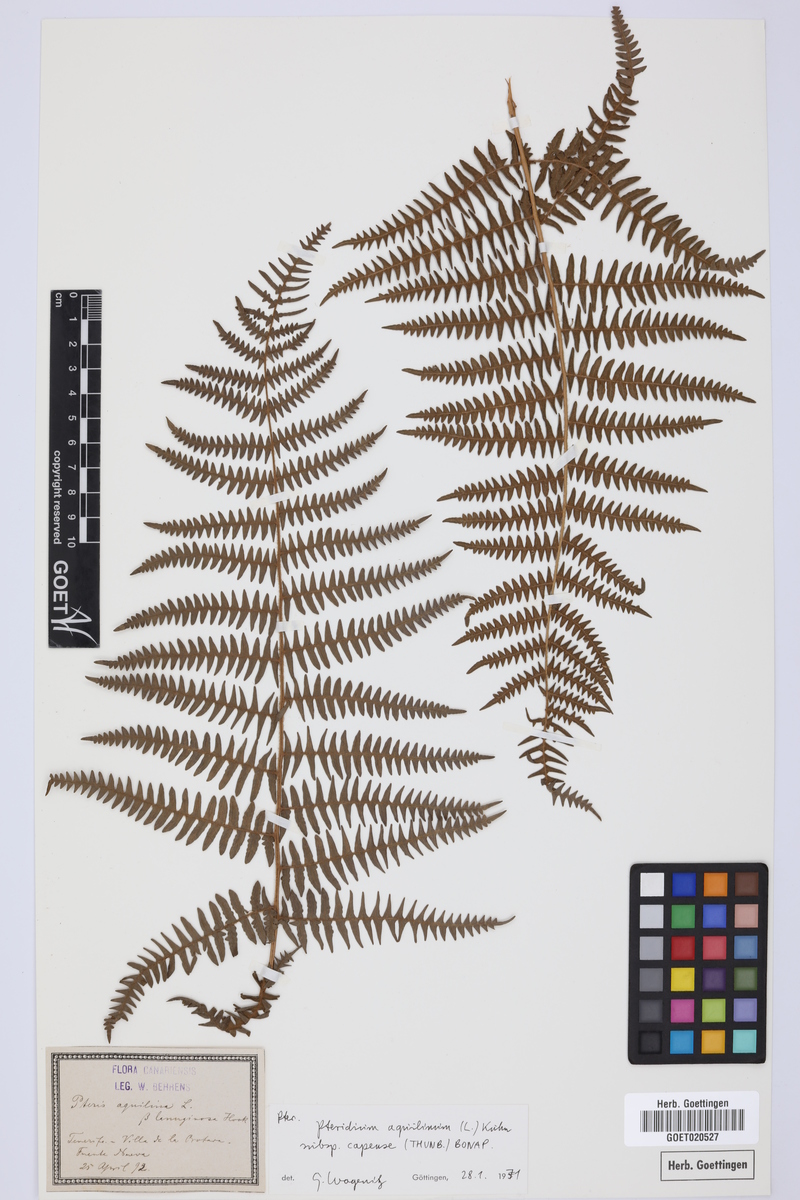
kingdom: Plantae
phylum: Tracheophyta
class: Polypodiopsida
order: Polypodiales
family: Dennstaedtiaceae
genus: Pteridium
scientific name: Pteridium aquilinum
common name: Bracken
